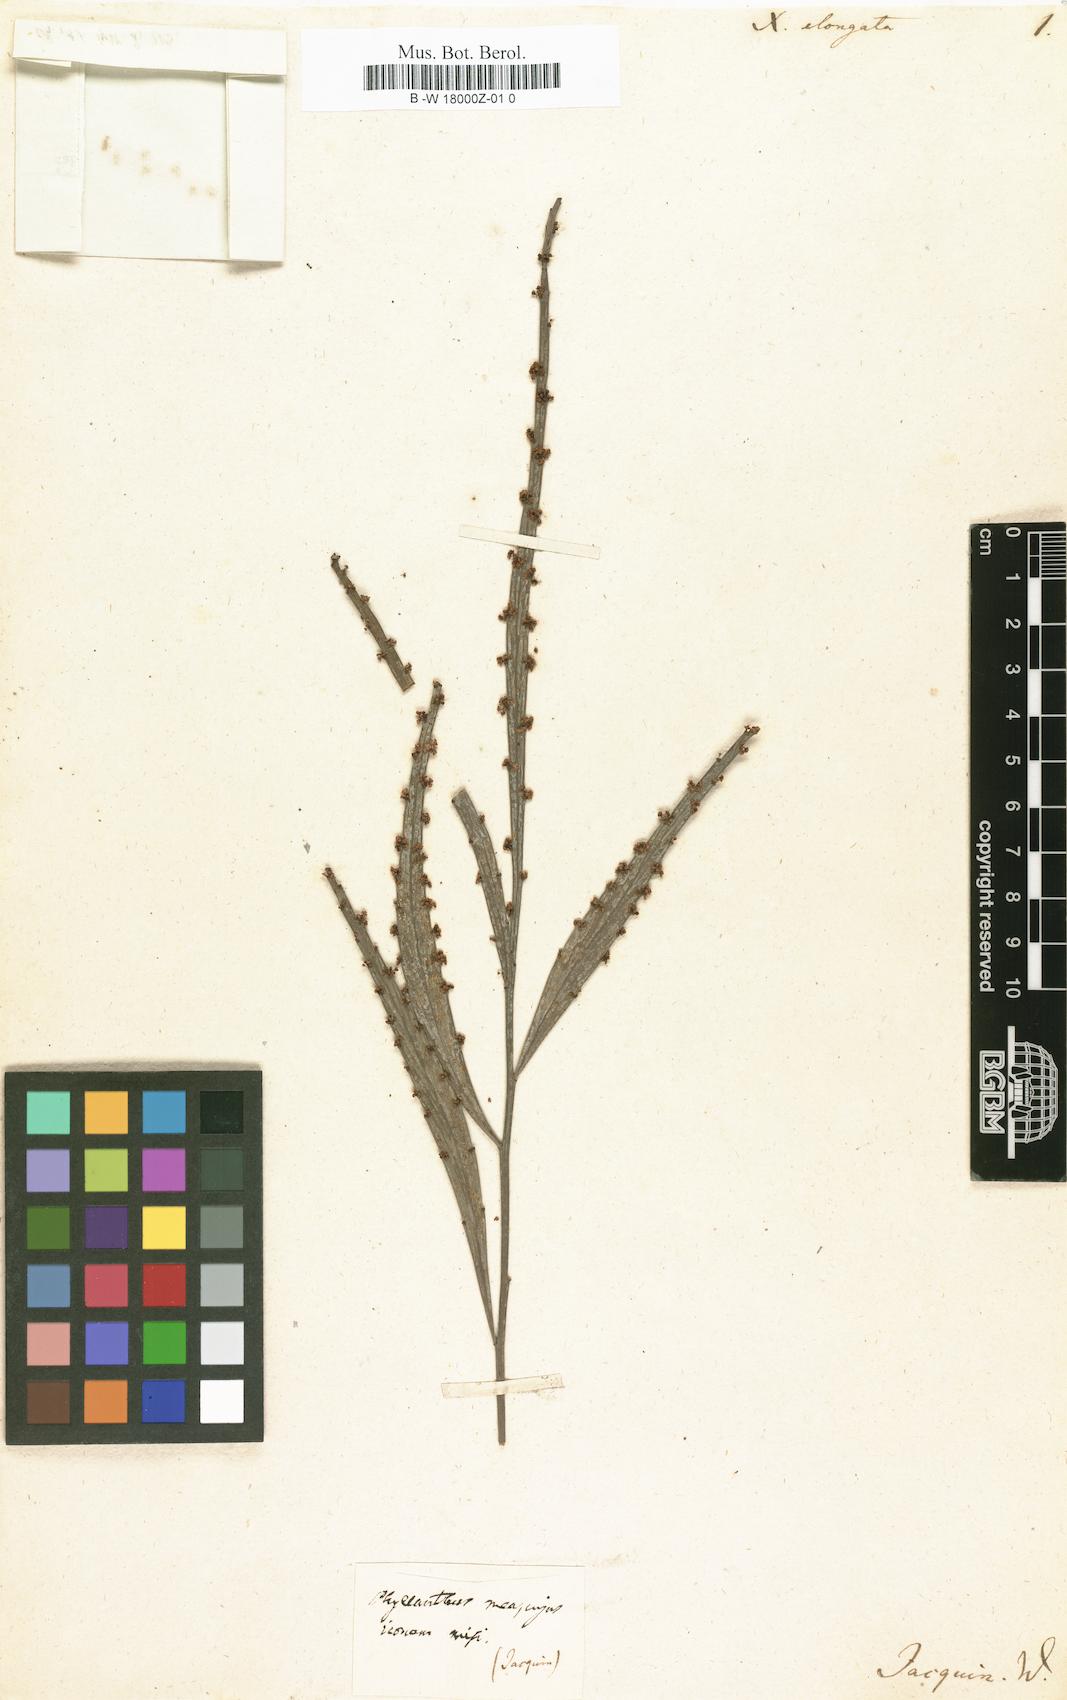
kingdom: Plantae
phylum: Tracheophyta
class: Magnoliopsida
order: Malpighiales
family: Phyllanthaceae
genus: Phyllanthus
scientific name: Phyllanthus elongatus
